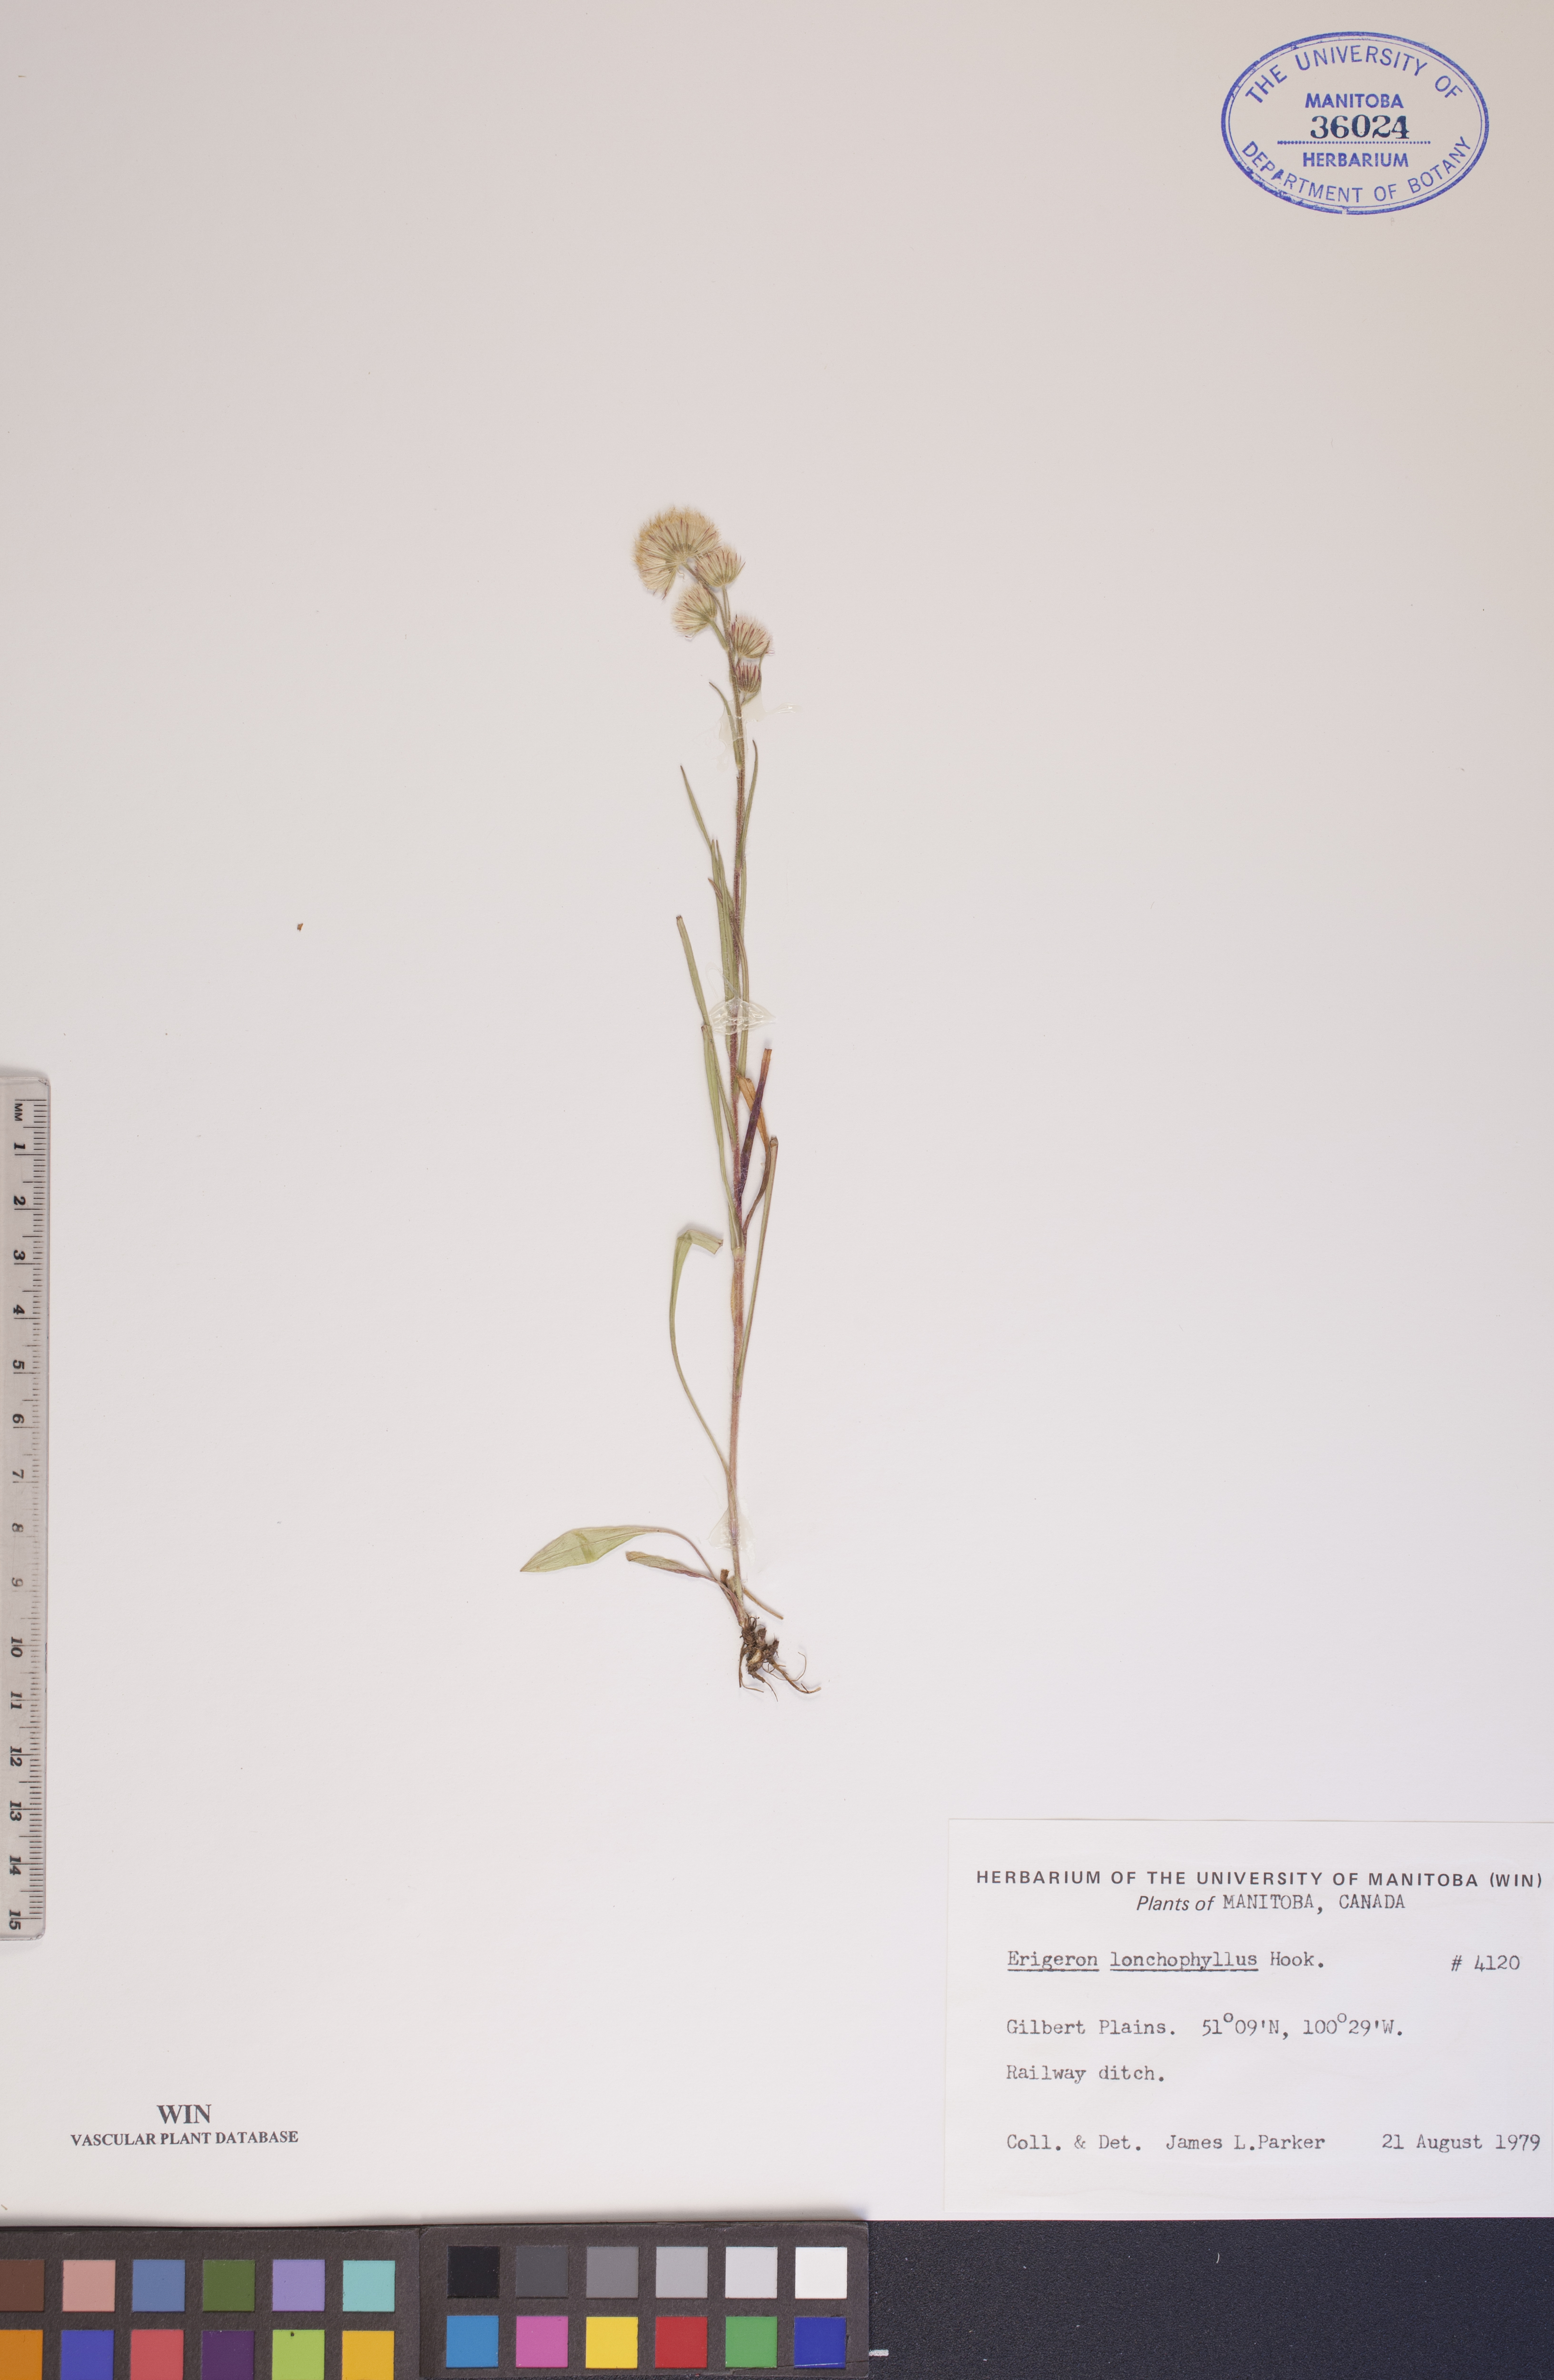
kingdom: Plantae
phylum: Tracheophyta
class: Magnoliopsida
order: Asterales
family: Asteraceae
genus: Erigeron
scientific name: Erigeron lonchophyllus
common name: Short-ray fleabane
